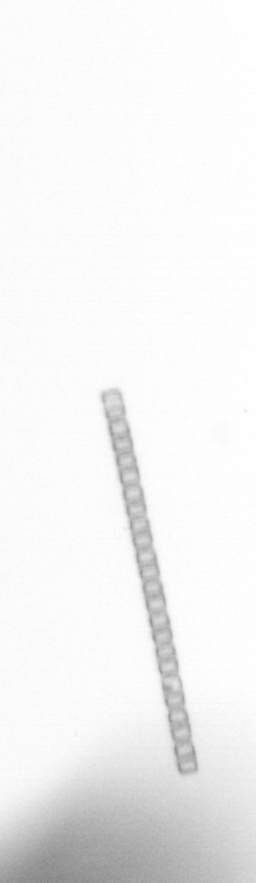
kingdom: Chromista
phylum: Ochrophyta
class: Bacillariophyceae
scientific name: Bacillariophyceae
